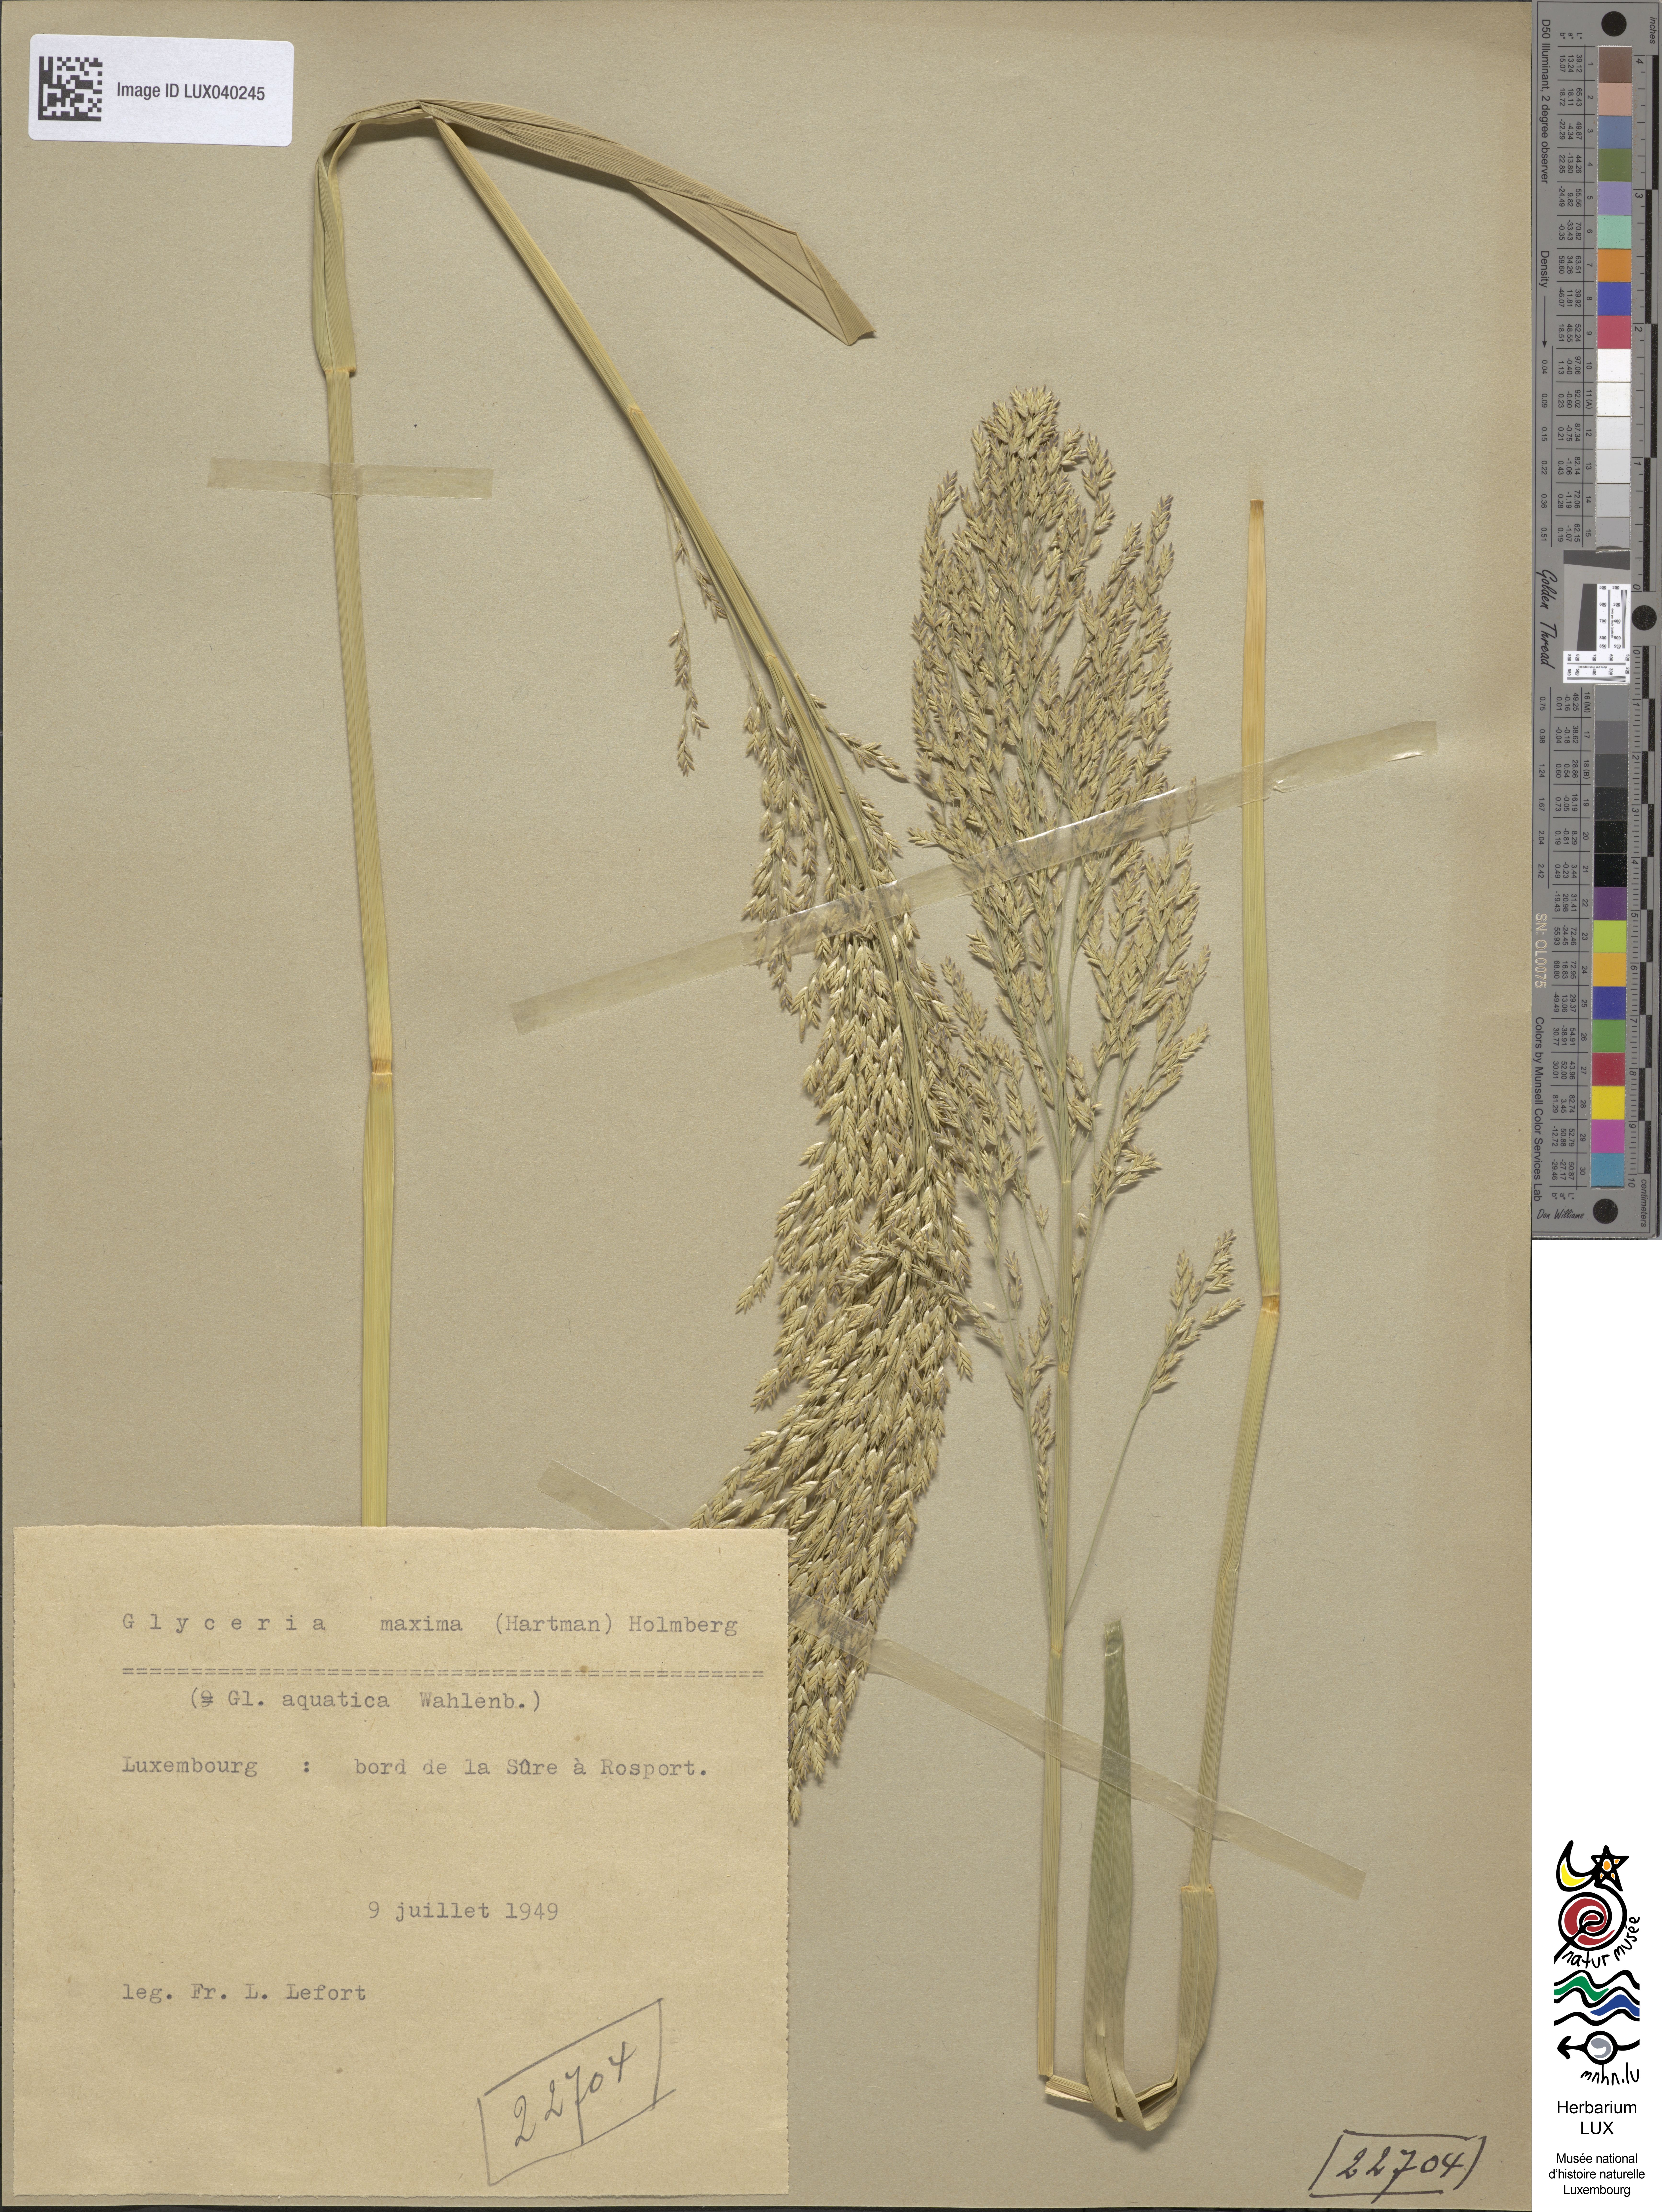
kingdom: Plantae
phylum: Tracheophyta
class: Liliopsida
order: Poales
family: Poaceae
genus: Glyceria
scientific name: Glyceria maxima
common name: Reed mannagrass
